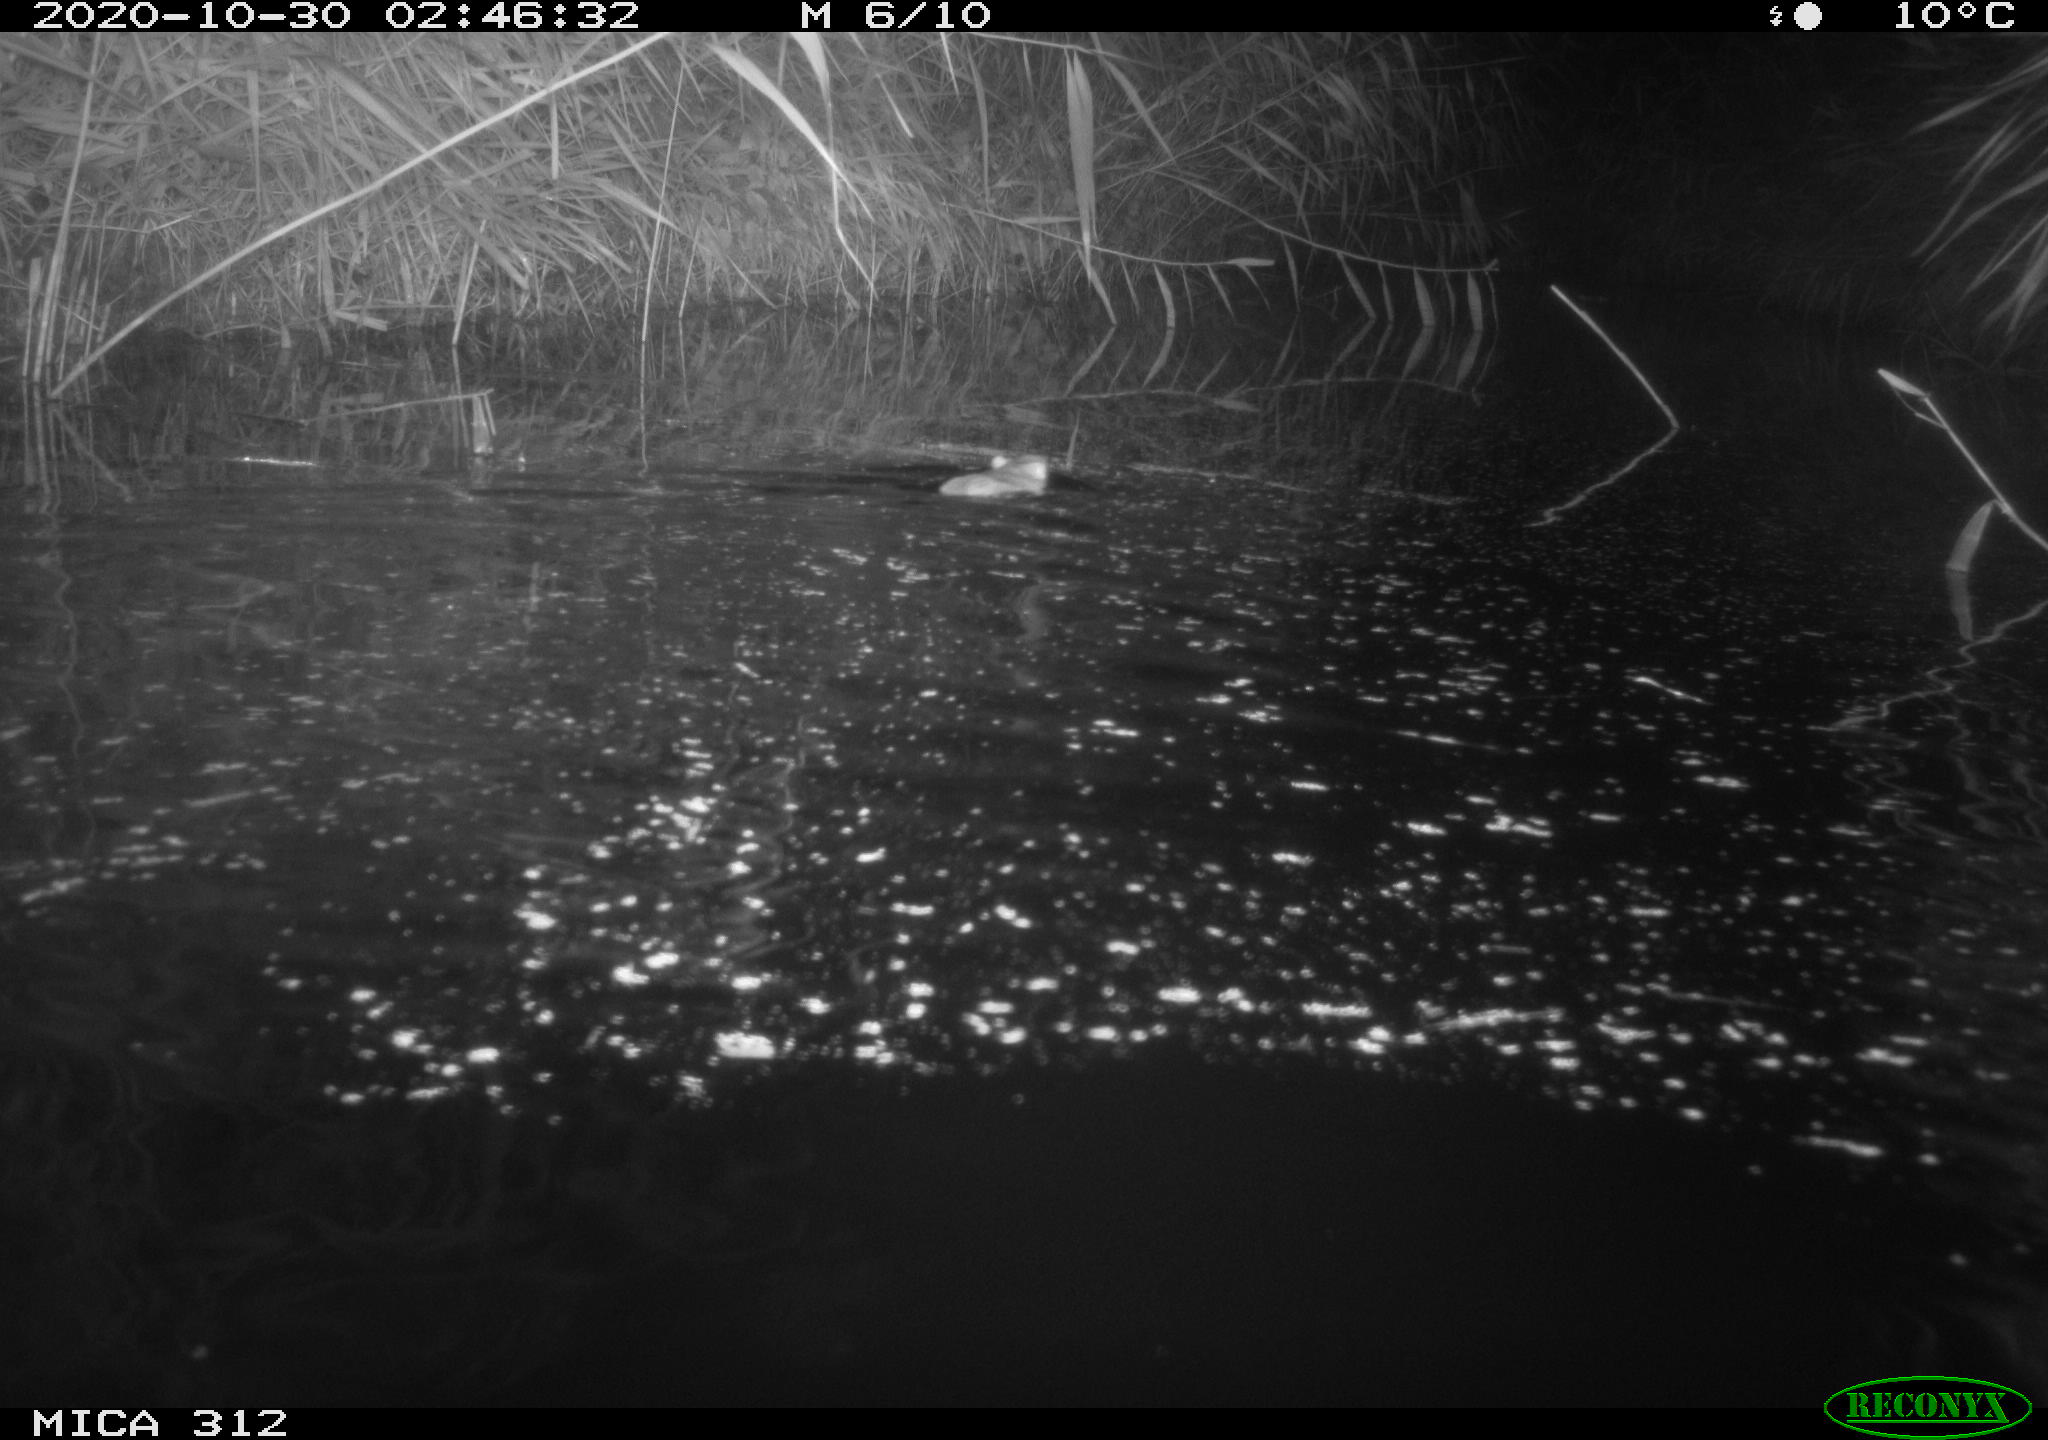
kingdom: Animalia
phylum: Chordata
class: Mammalia
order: Rodentia
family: Muridae
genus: Rattus
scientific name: Rattus norvegicus
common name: Brown rat
